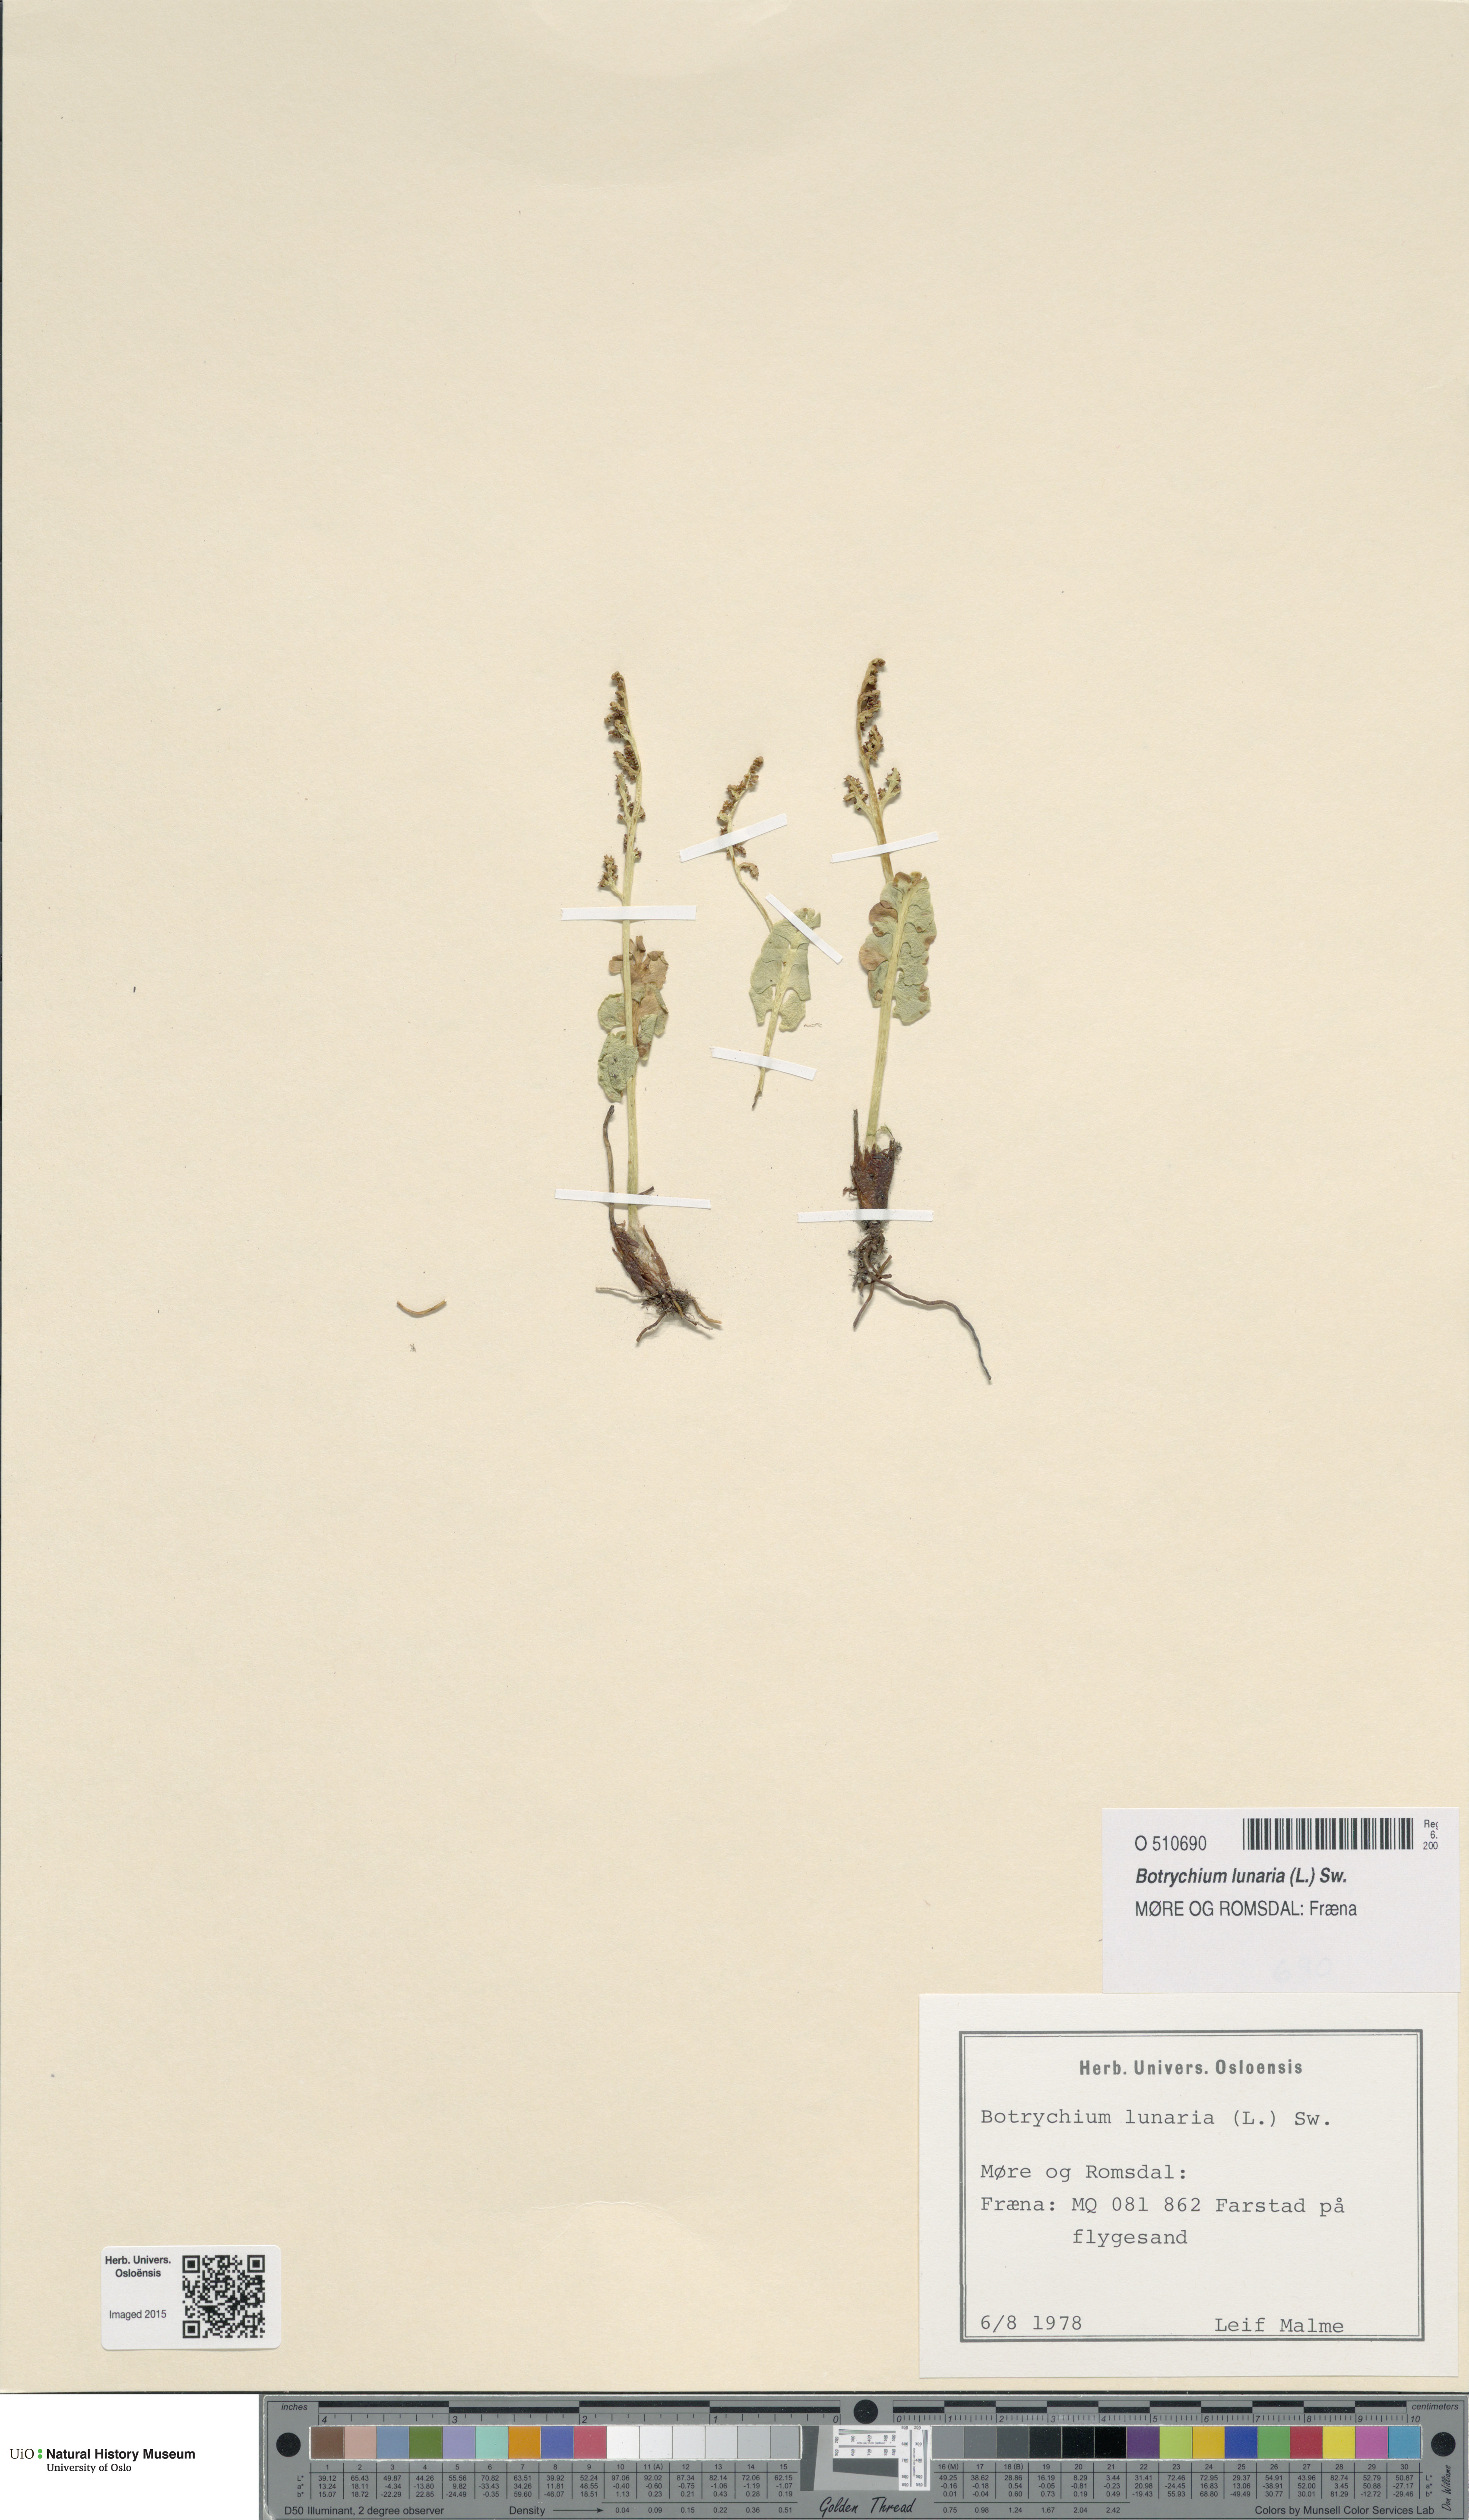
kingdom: Plantae
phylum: Tracheophyta
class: Polypodiopsida
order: Ophioglossales
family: Ophioglossaceae
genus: Botrychium
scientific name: Botrychium lunaria
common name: Moonwort
